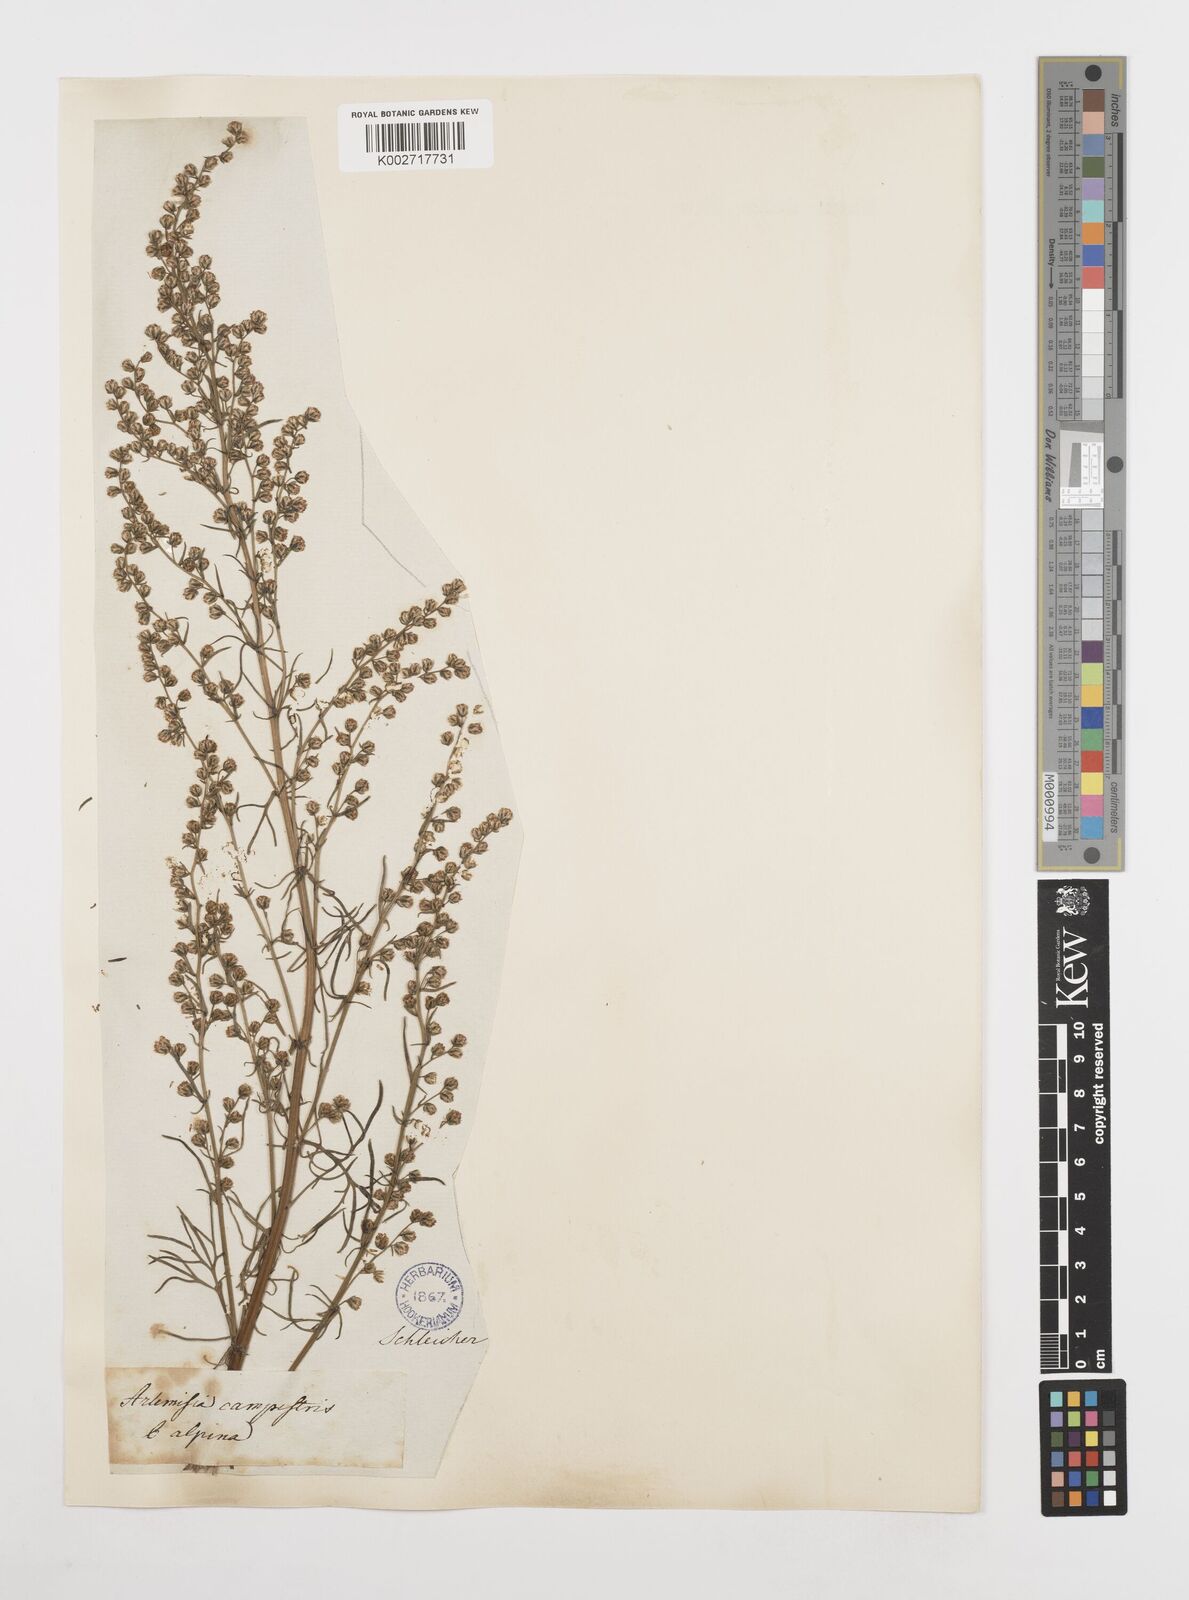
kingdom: Plantae
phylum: Tracheophyta
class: Magnoliopsida
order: Asterales
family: Asteraceae
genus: Artemisia
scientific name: Artemisia campestris
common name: Field wormwood
